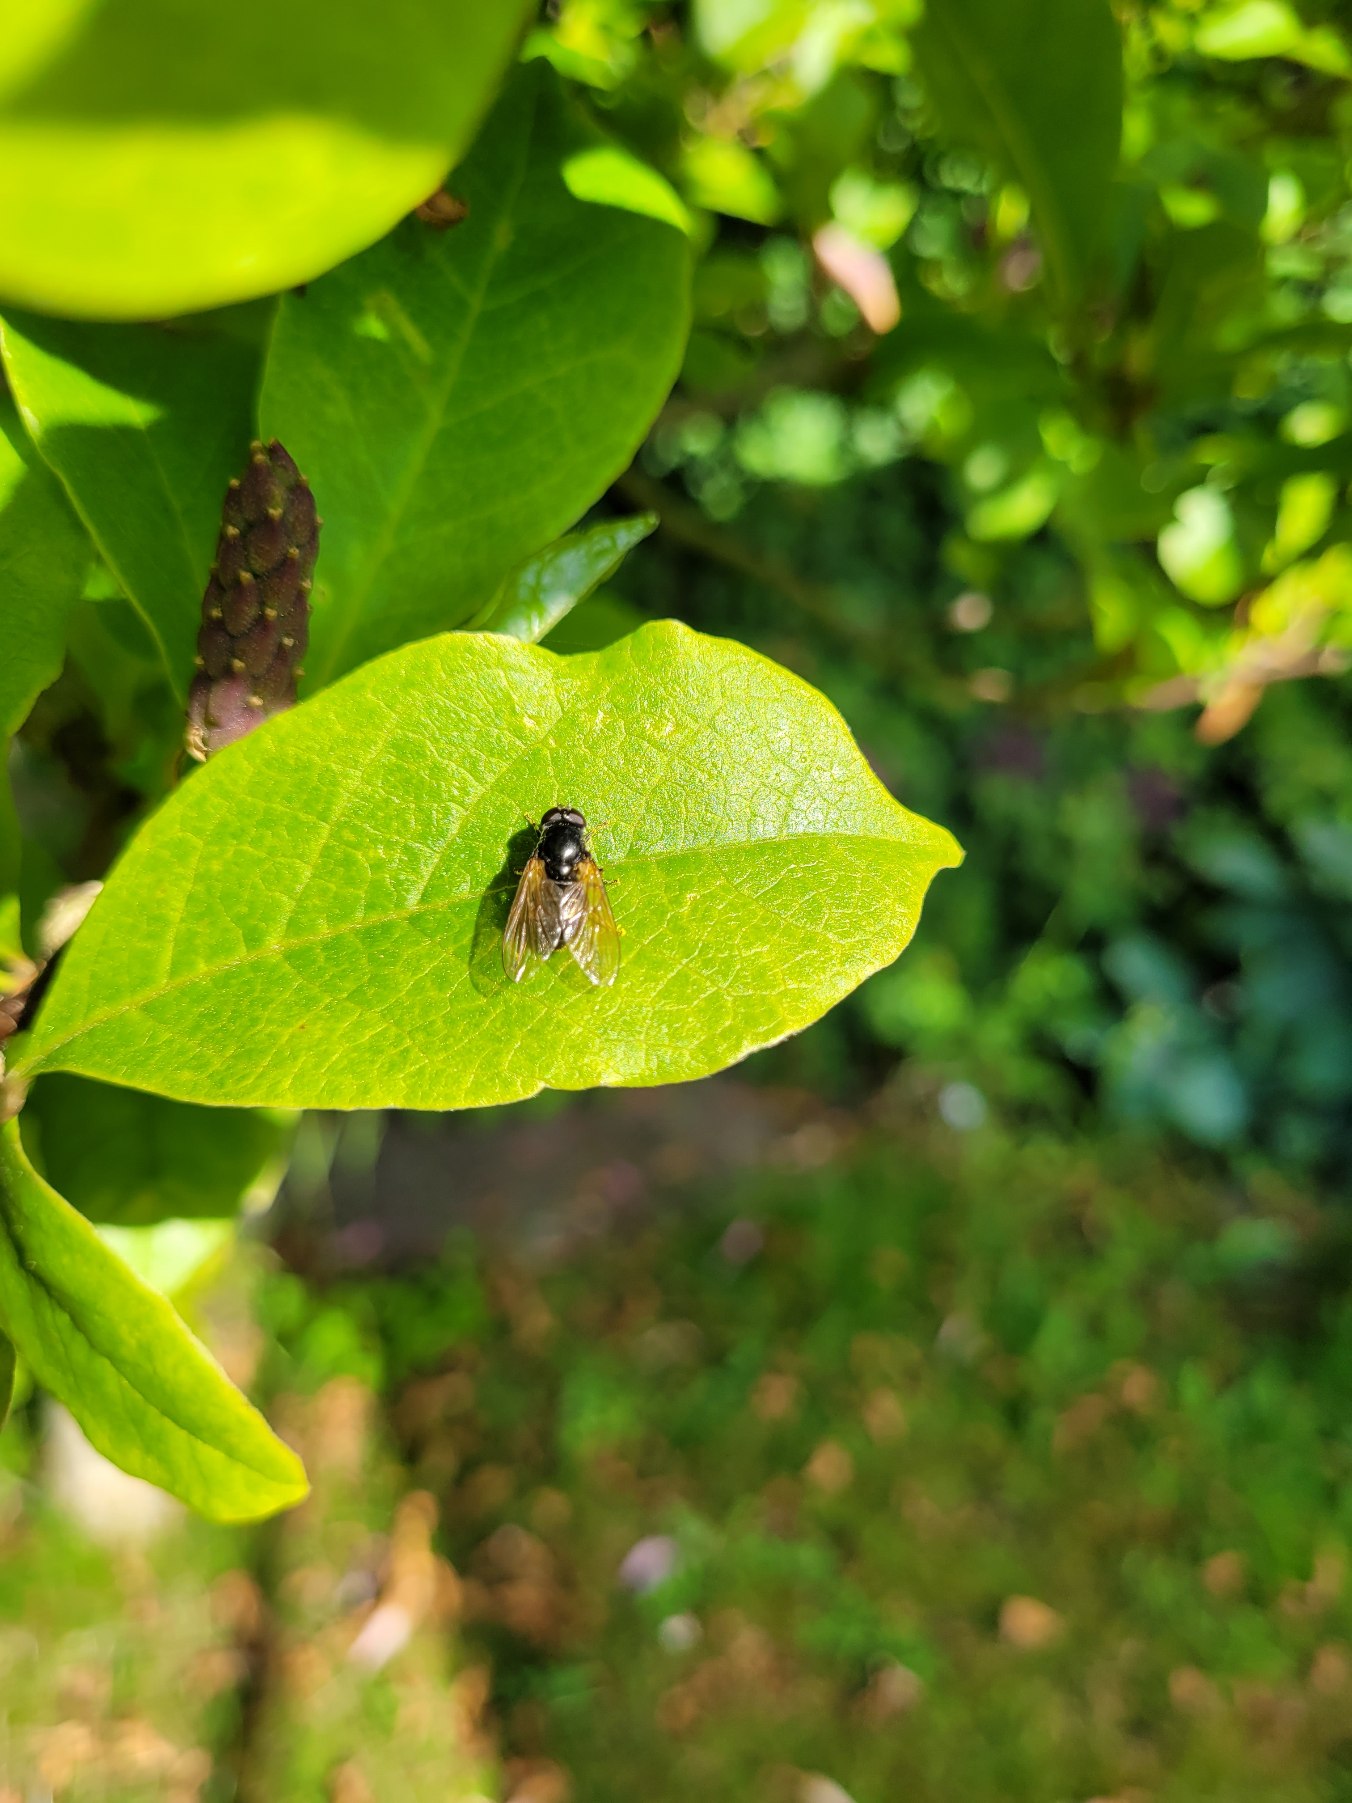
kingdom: Animalia
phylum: Arthropoda
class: Insecta
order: Diptera
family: Muscidae
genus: Mesembrina
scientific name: Mesembrina meridiana
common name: Gulvinget flue
